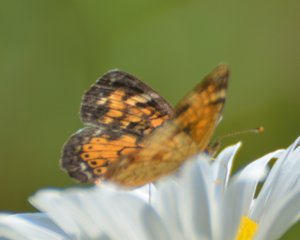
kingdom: Animalia
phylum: Arthropoda
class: Insecta
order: Lepidoptera
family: Nymphalidae
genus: Phyciodes
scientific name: Phyciodes tharos
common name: Northern Crescent
